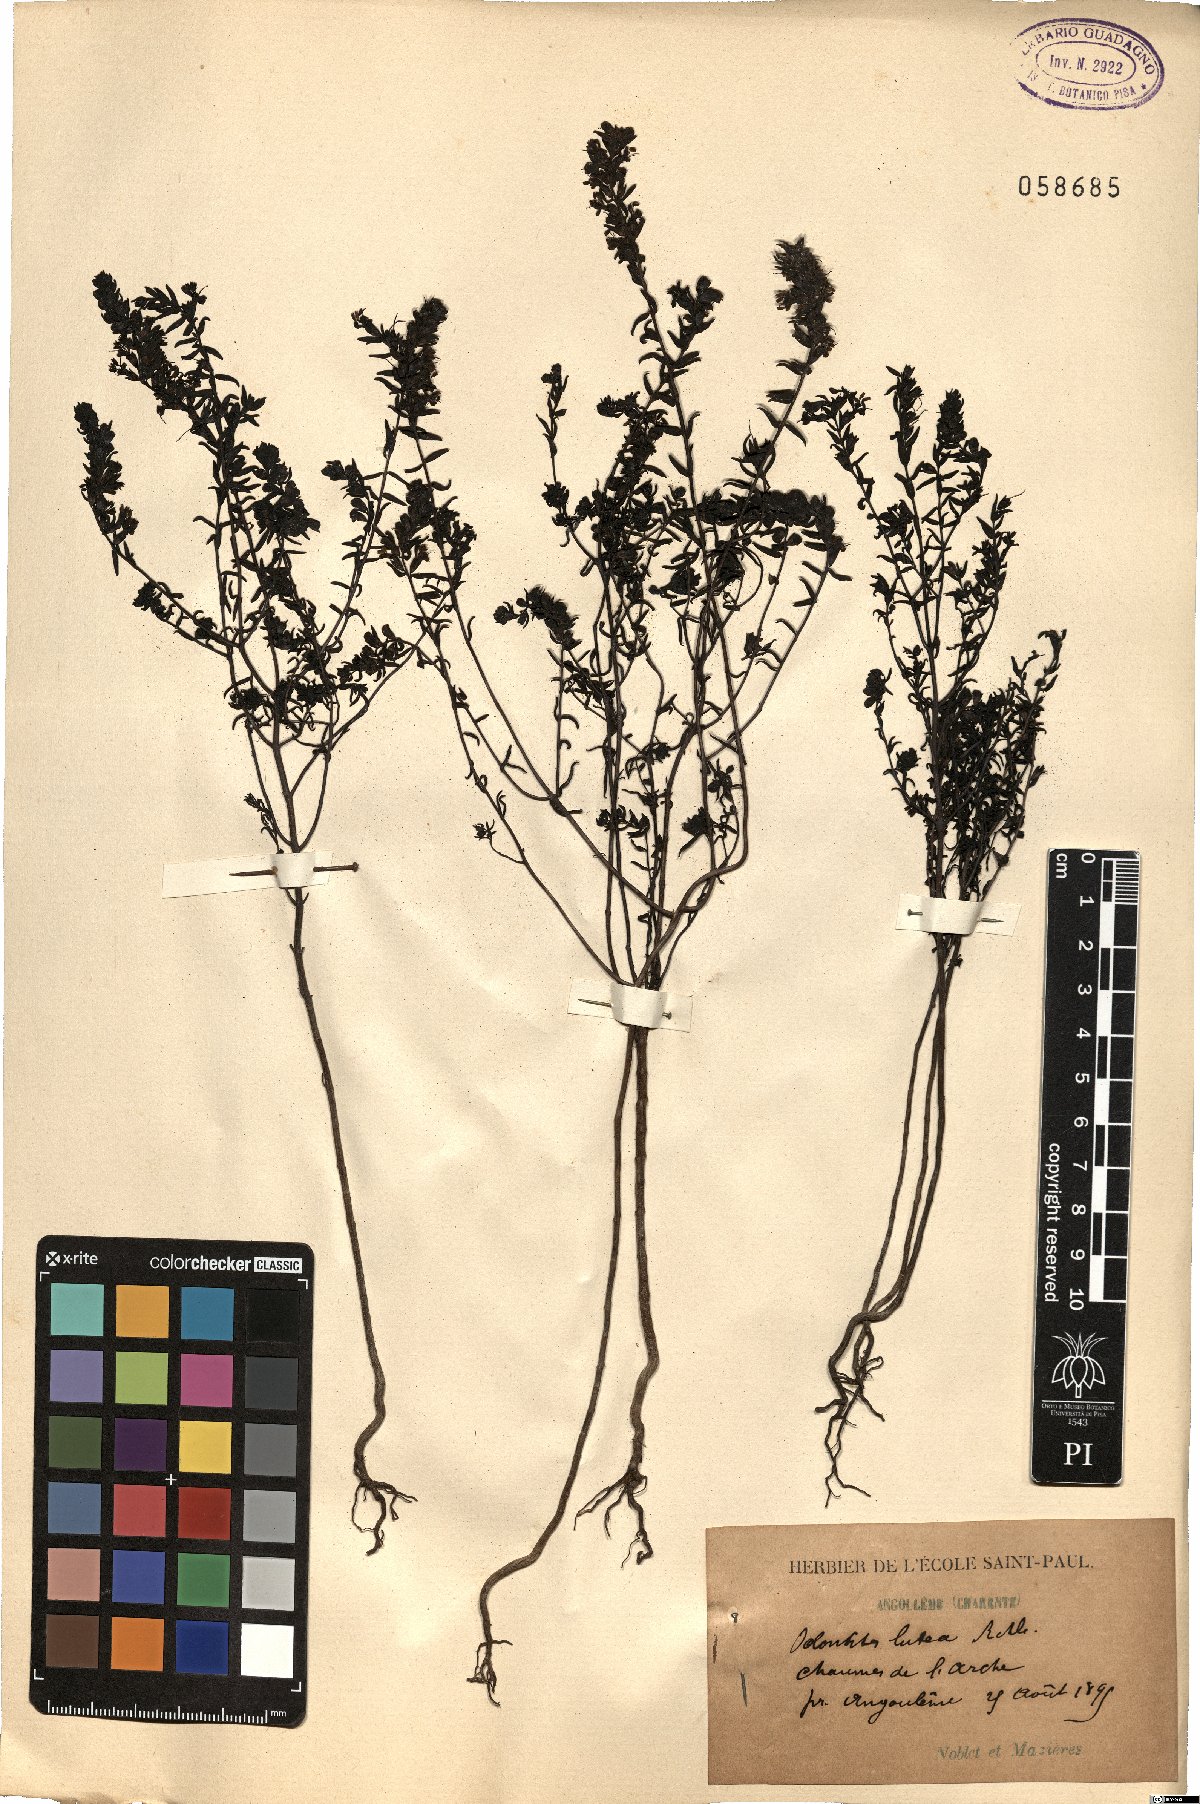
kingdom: Plantae
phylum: Tracheophyta
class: Magnoliopsida
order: Lamiales
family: Orobanchaceae
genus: Odontites
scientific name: Odontites luteus
